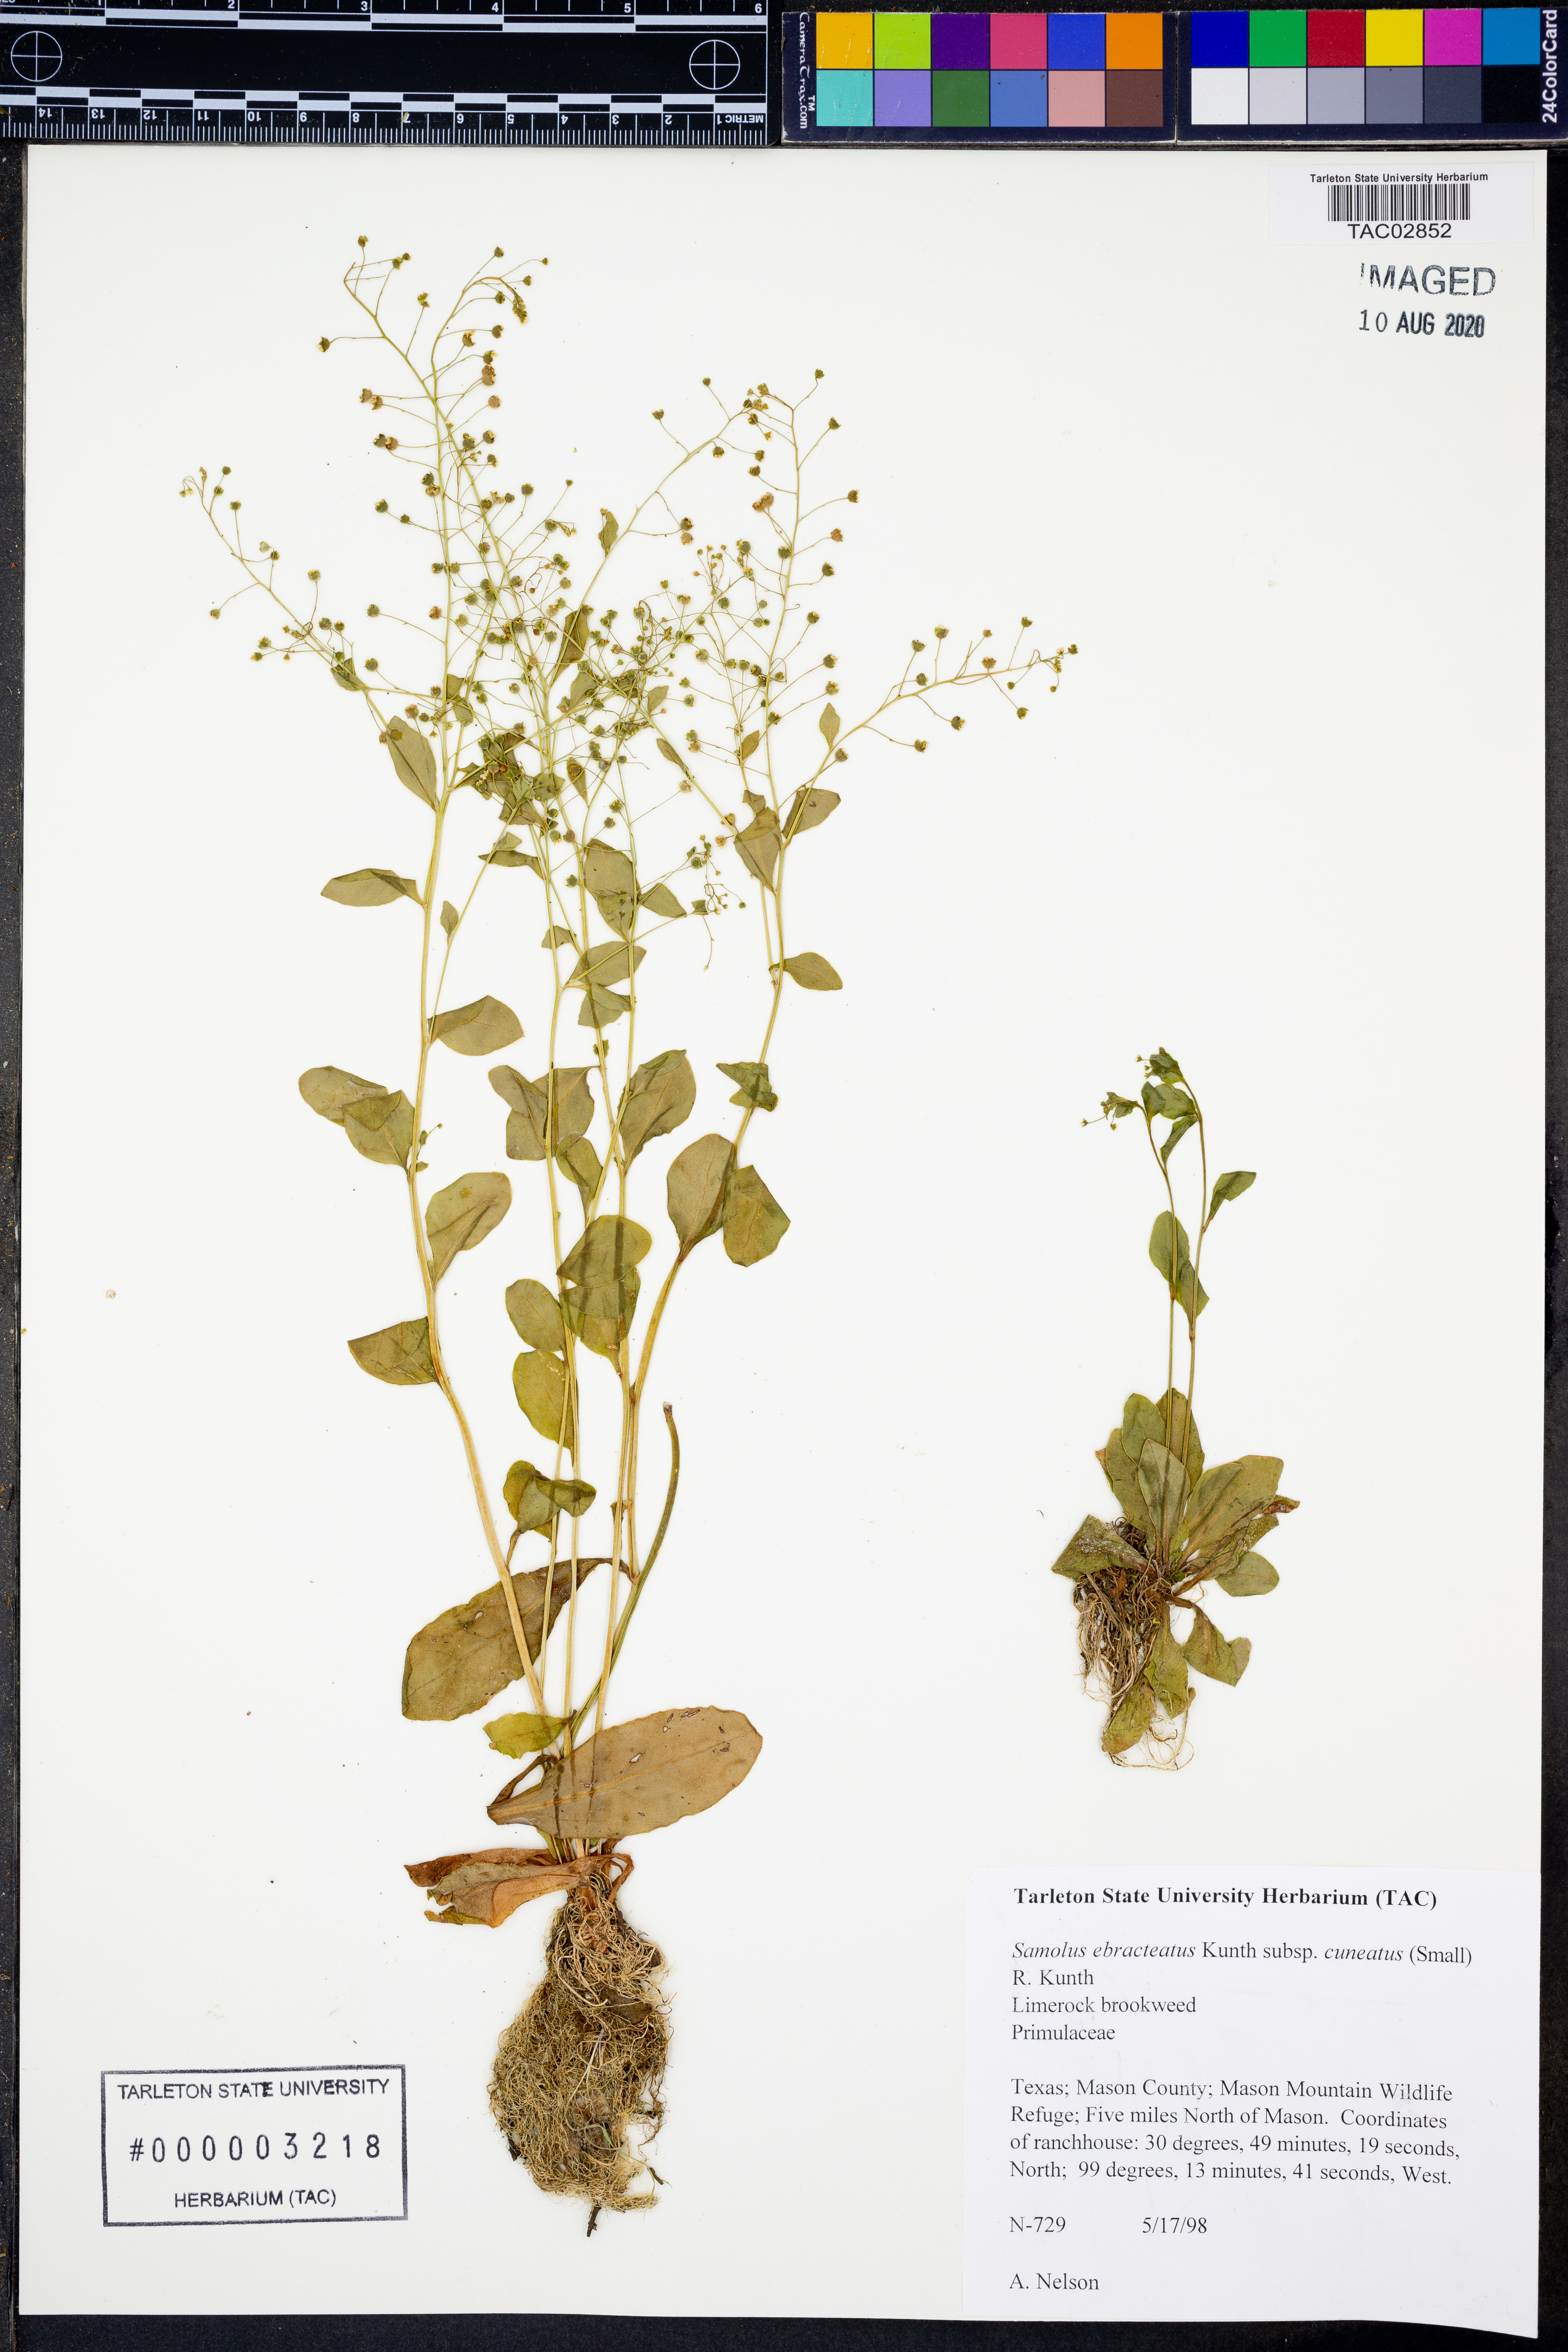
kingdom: Plantae
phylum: Tracheophyta
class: Magnoliopsida
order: Ericales
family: Primulaceae
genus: Samolus
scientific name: Samolus ebracteatus
